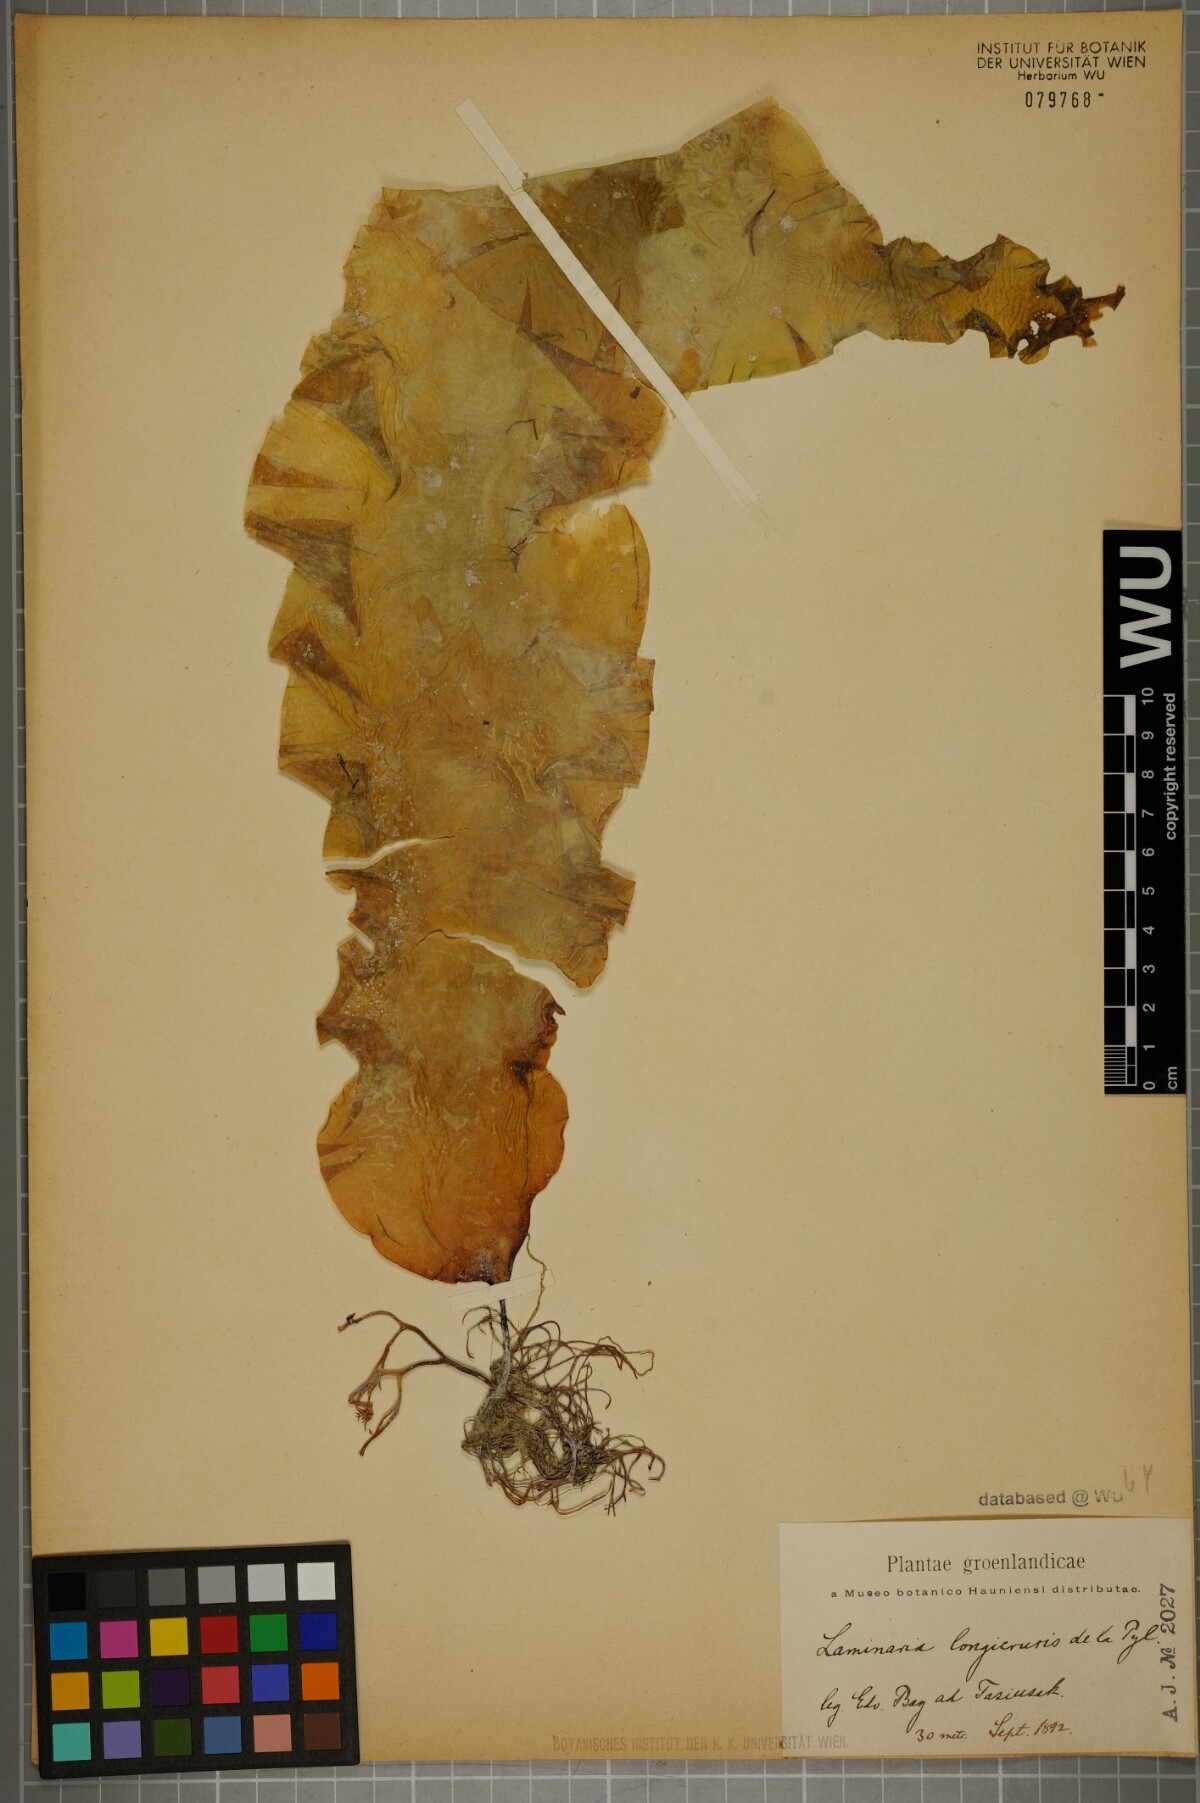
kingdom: Chromista
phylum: Ochrophyta
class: Phaeophyceae
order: Laminariales
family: Laminariaceae
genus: Saccharina
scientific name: Saccharina longicruris
